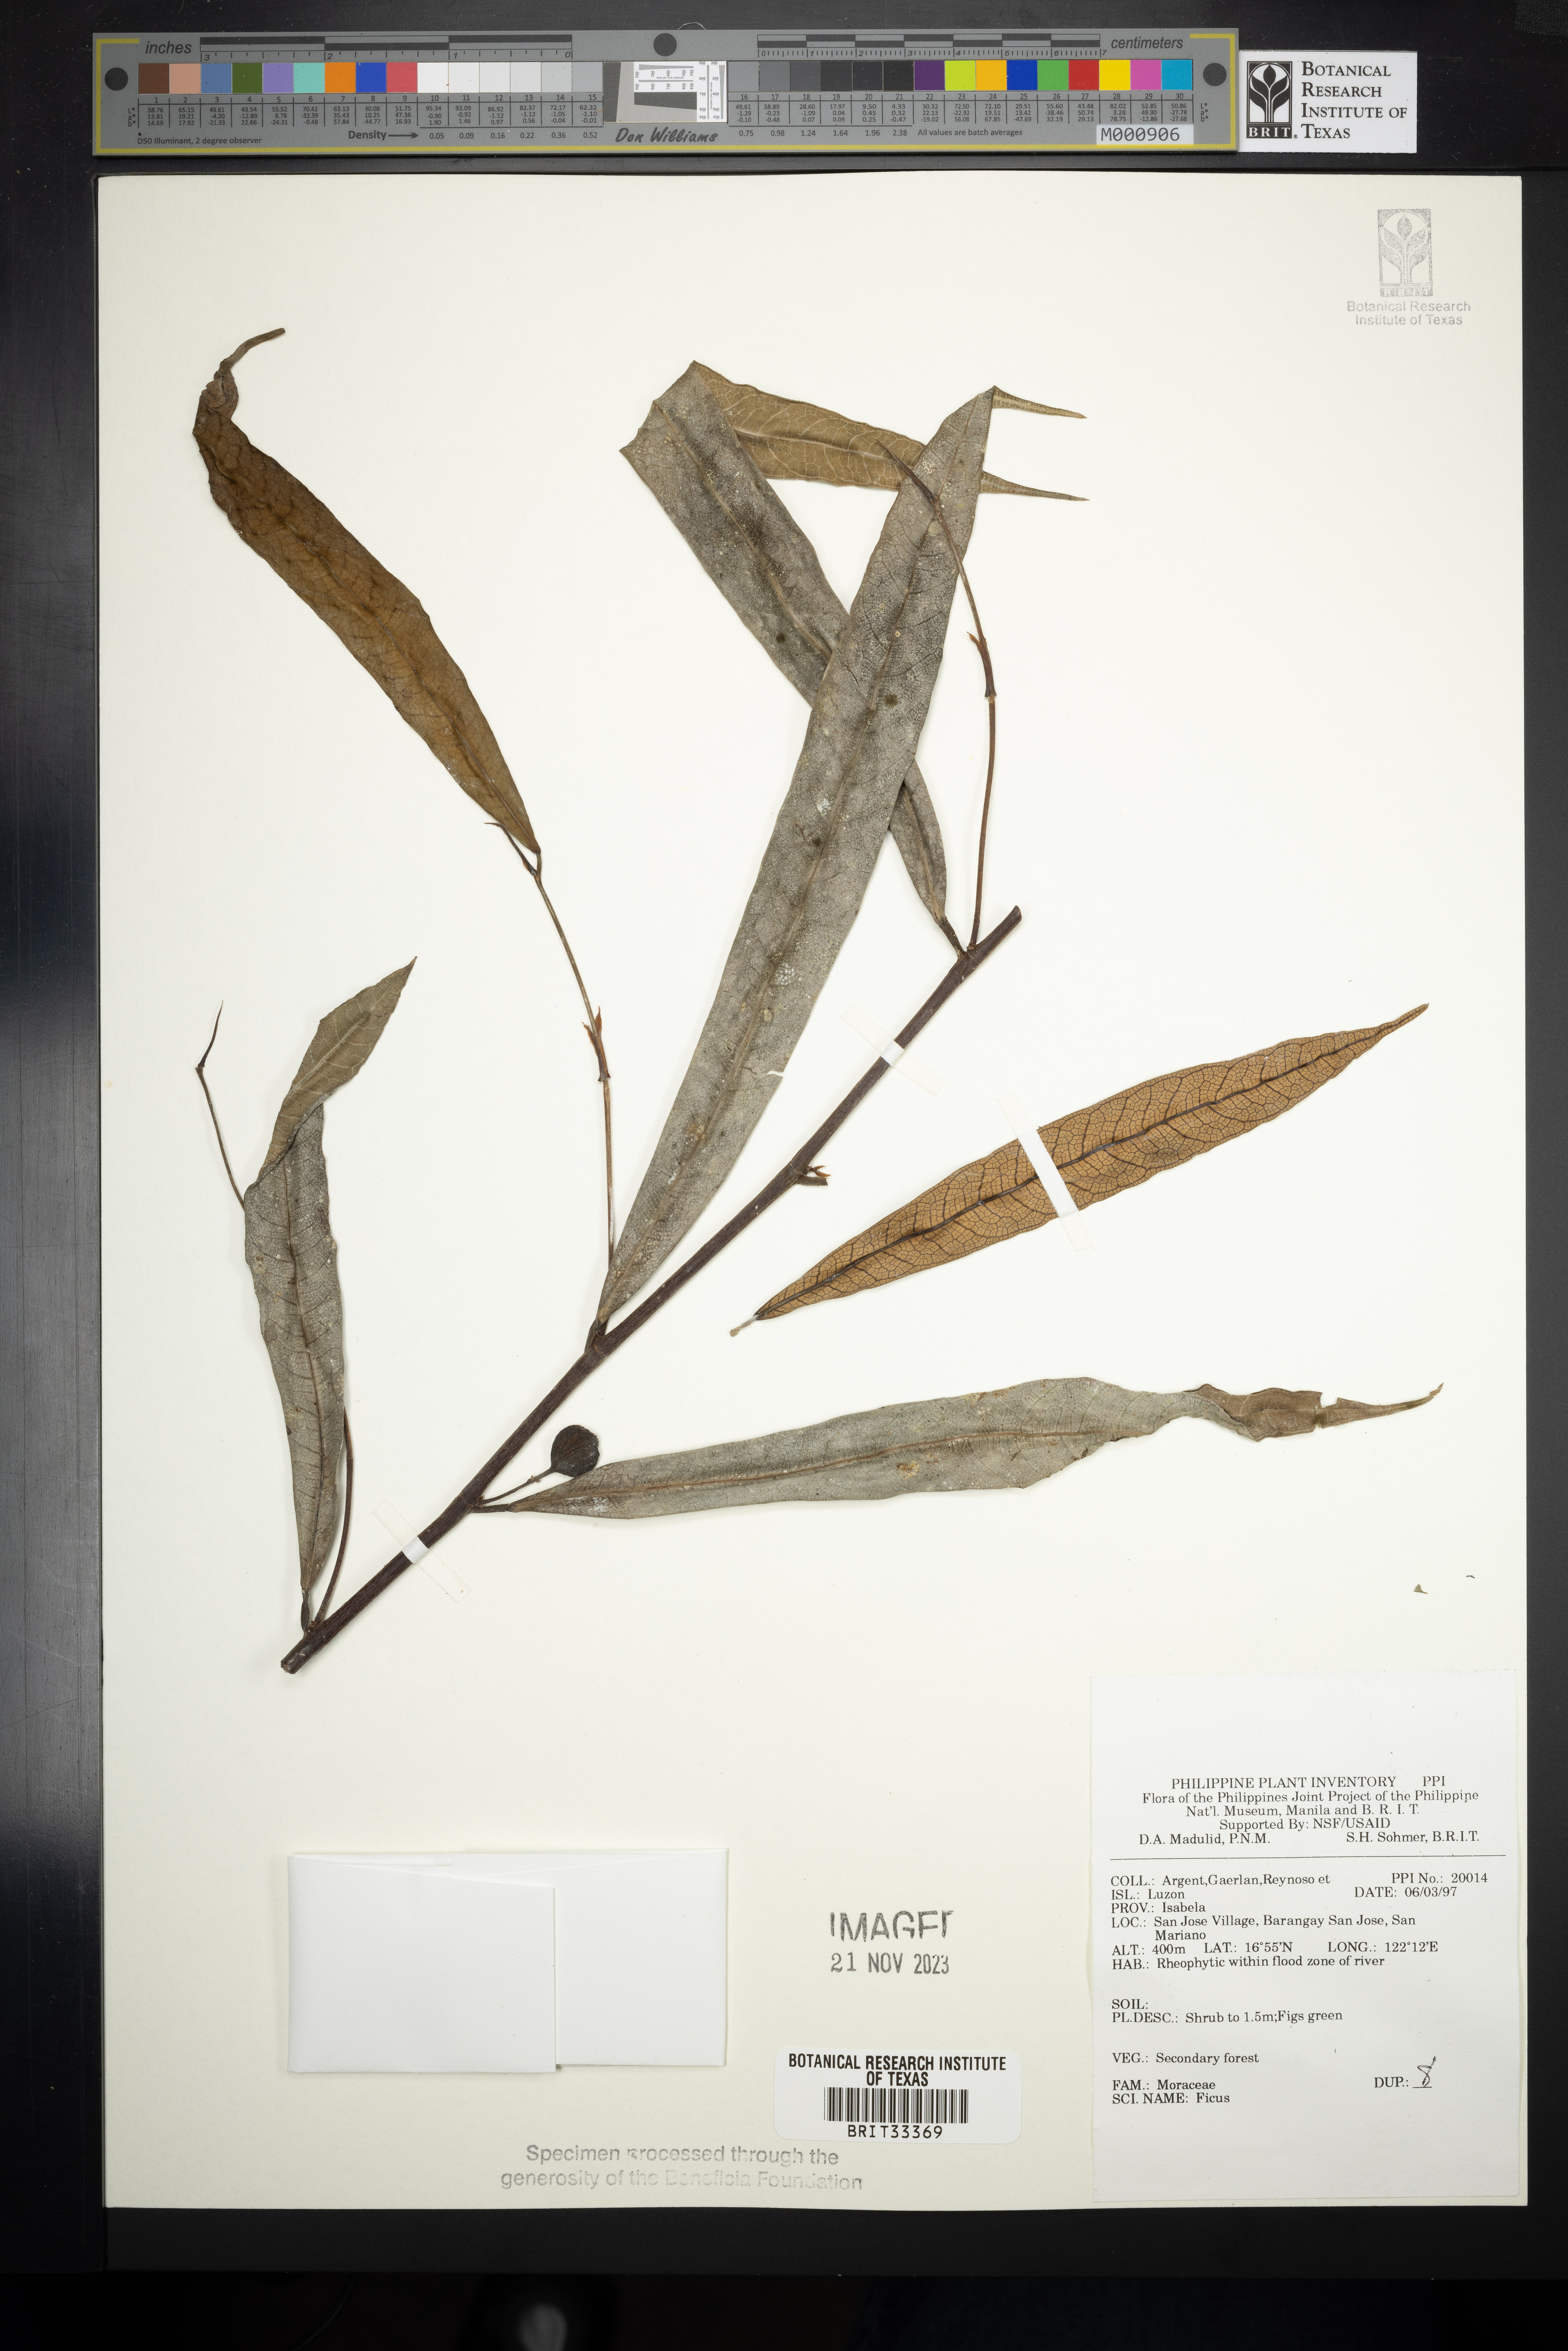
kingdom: Plantae
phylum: Tracheophyta
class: Magnoliopsida
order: Rosales
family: Moraceae
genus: Ficus
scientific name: Ficus
